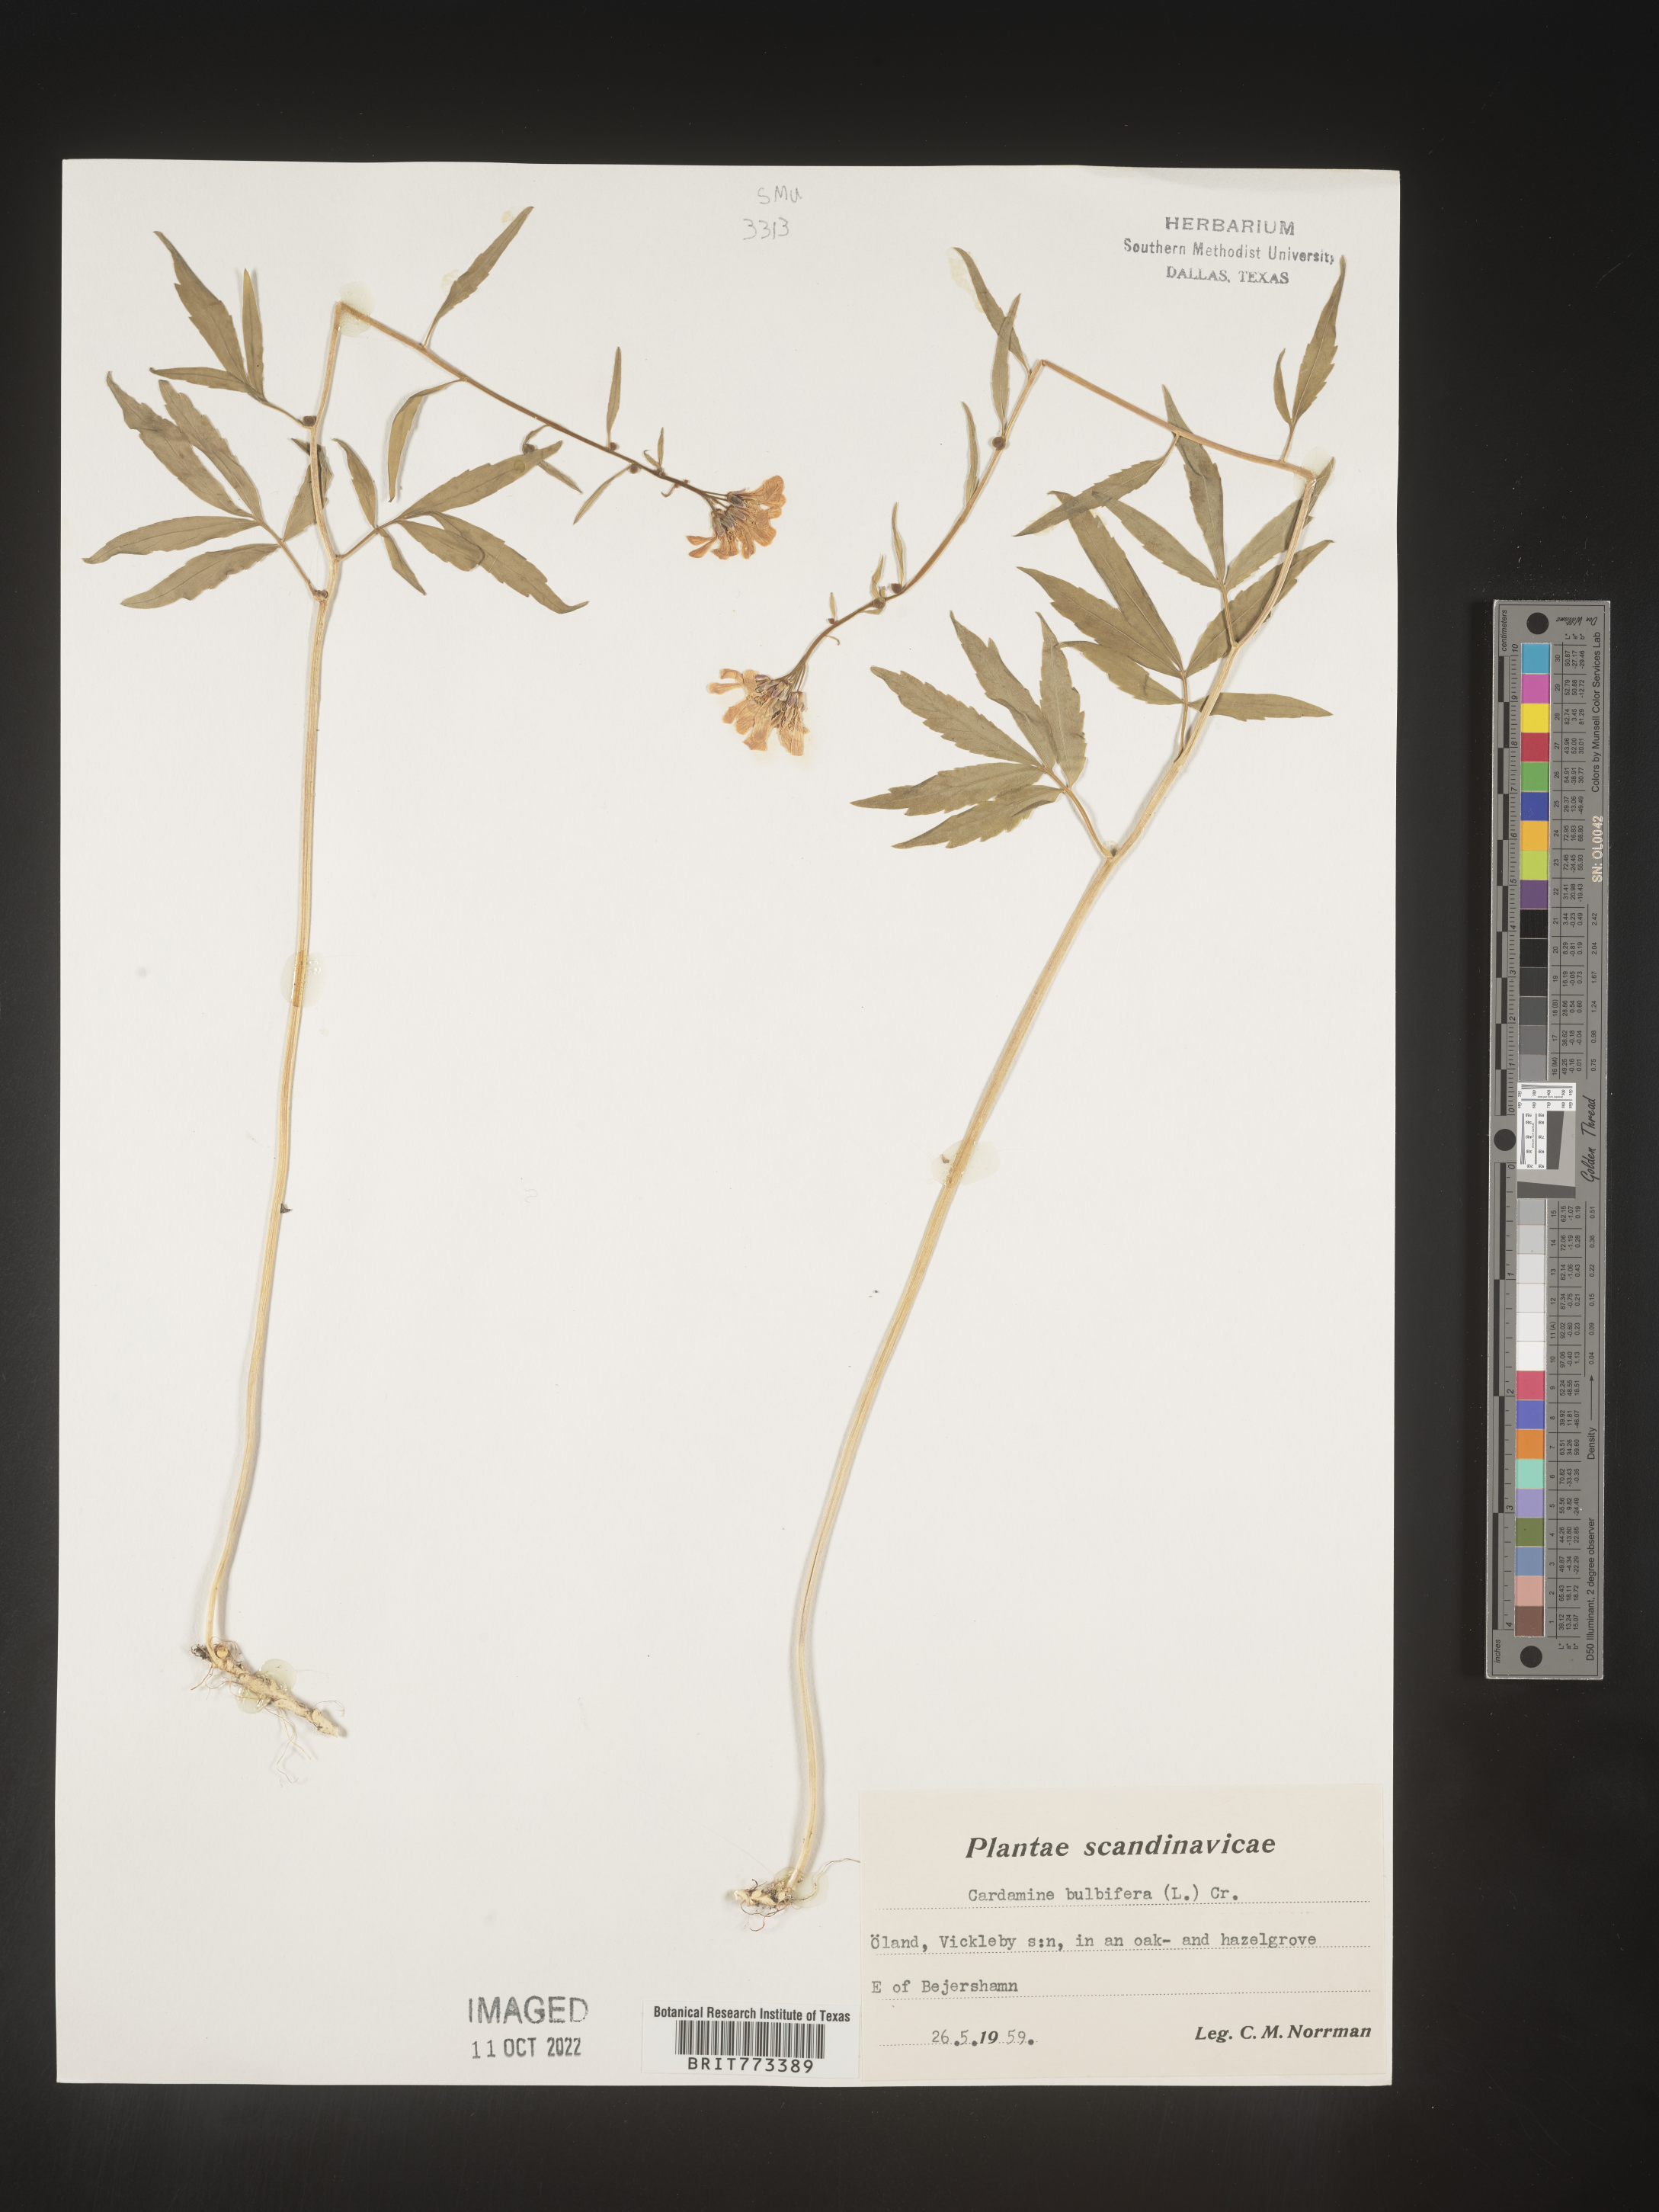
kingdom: Plantae
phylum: Tracheophyta
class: Magnoliopsida
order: Brassicales
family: Brassicaceae
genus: Cardamine
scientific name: Cardamine
